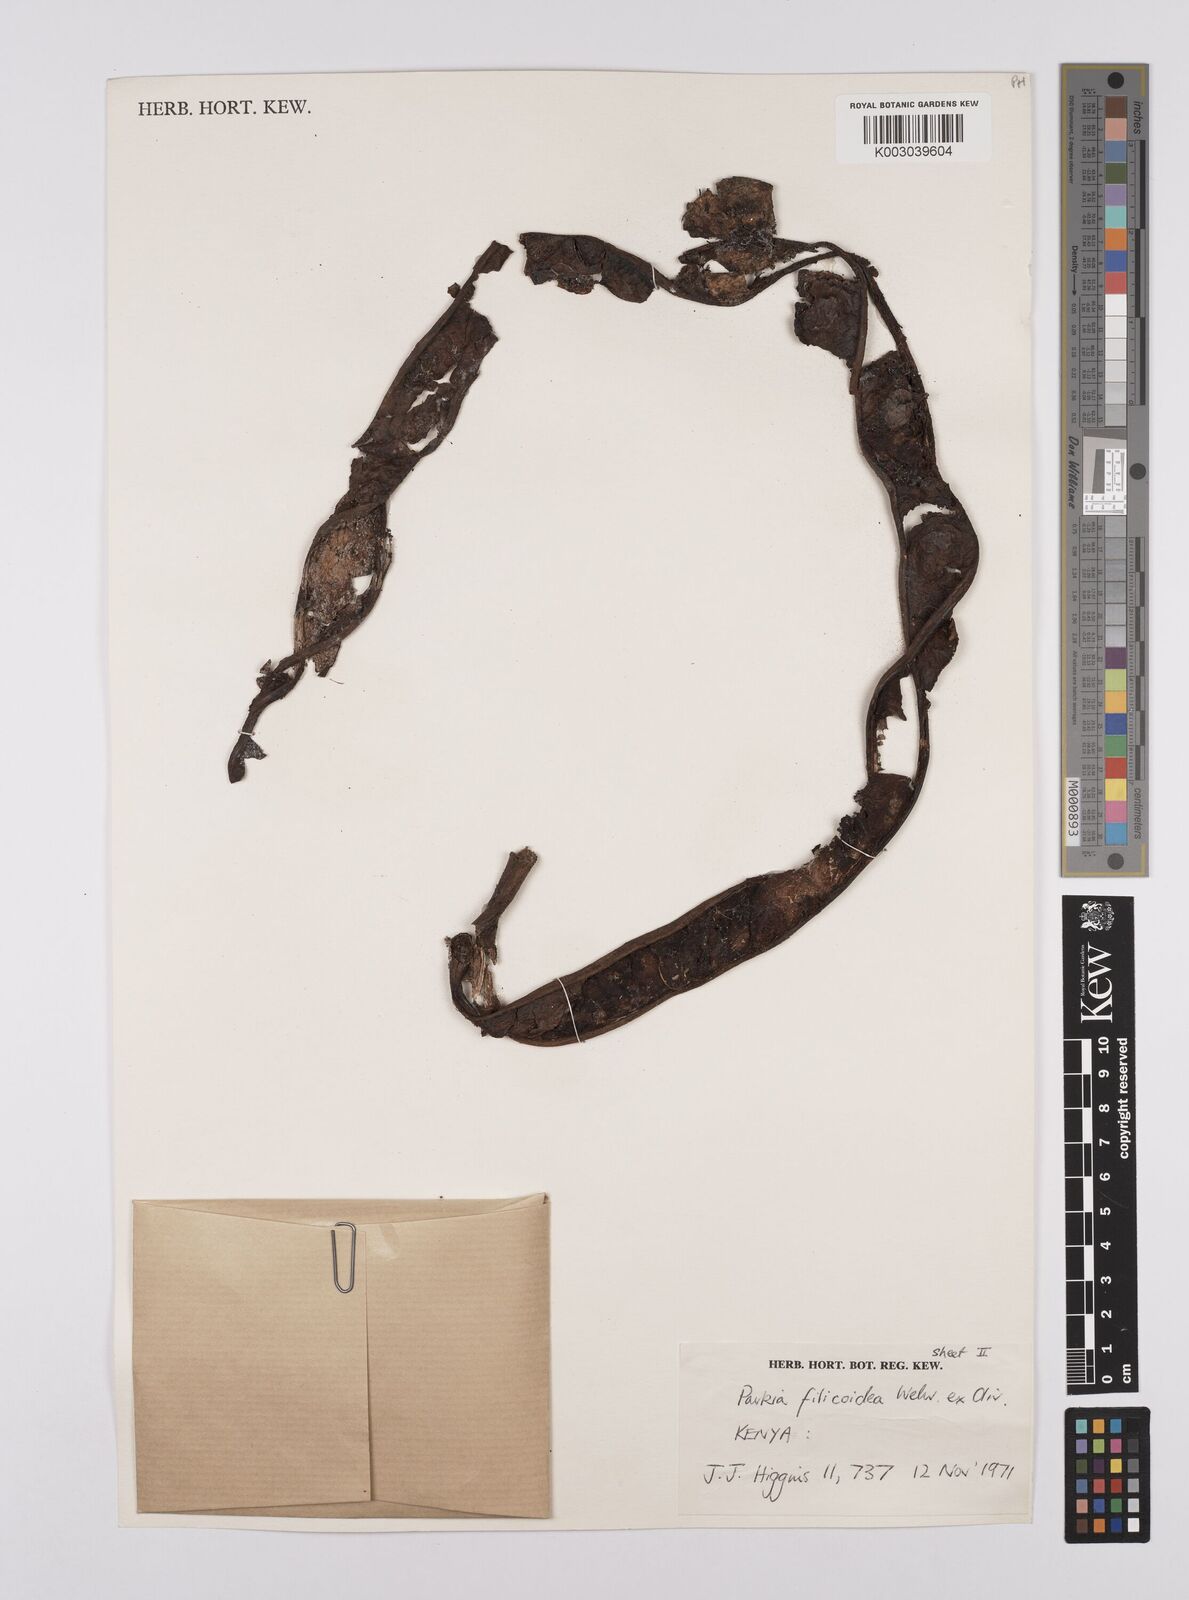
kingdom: Plantae
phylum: Tracheophyta
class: Magnoliopsida
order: Fabales
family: Fabaceae
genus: Parkia
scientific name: Parkia filicoidea
